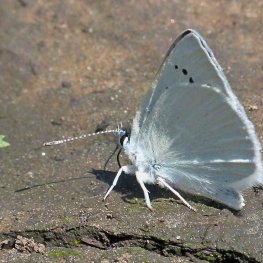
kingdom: Animalia
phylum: Arthropoda
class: Insecta
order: Lepidoptera
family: Lycaenidae
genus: Lycaena
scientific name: Lycaena heteronea
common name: Blue Copper
